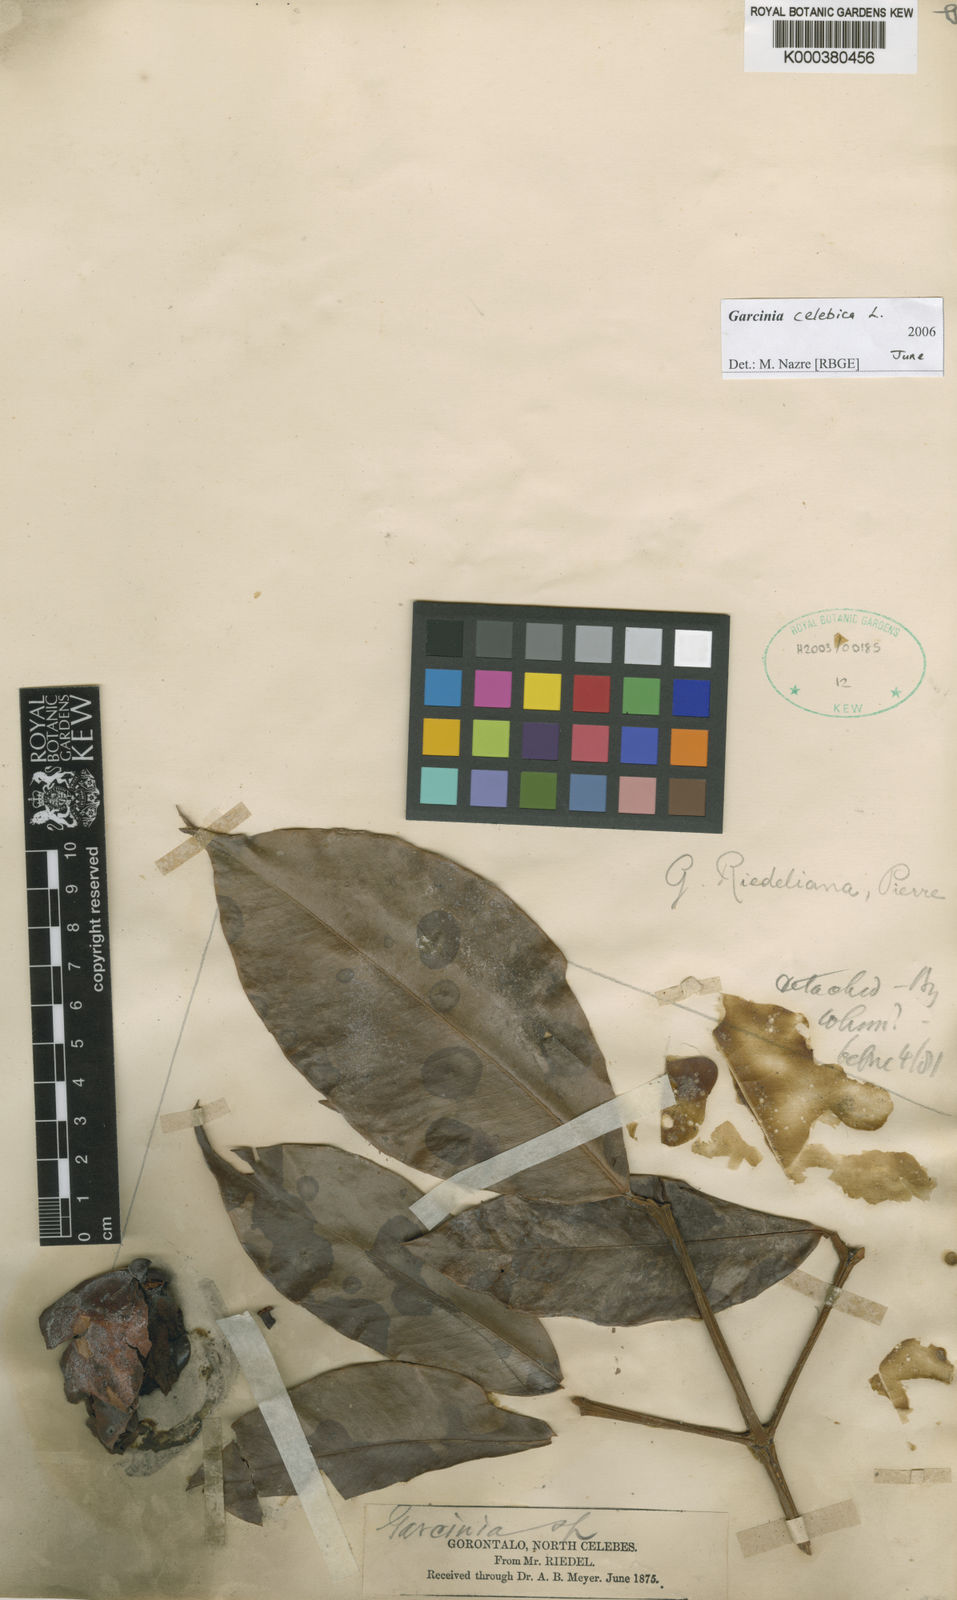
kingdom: Plantae
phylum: Tracheophyta
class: Magnoliopsida
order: Malpighiales
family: Clusiaceae
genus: Garcinia
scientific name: Garcinia celebica
